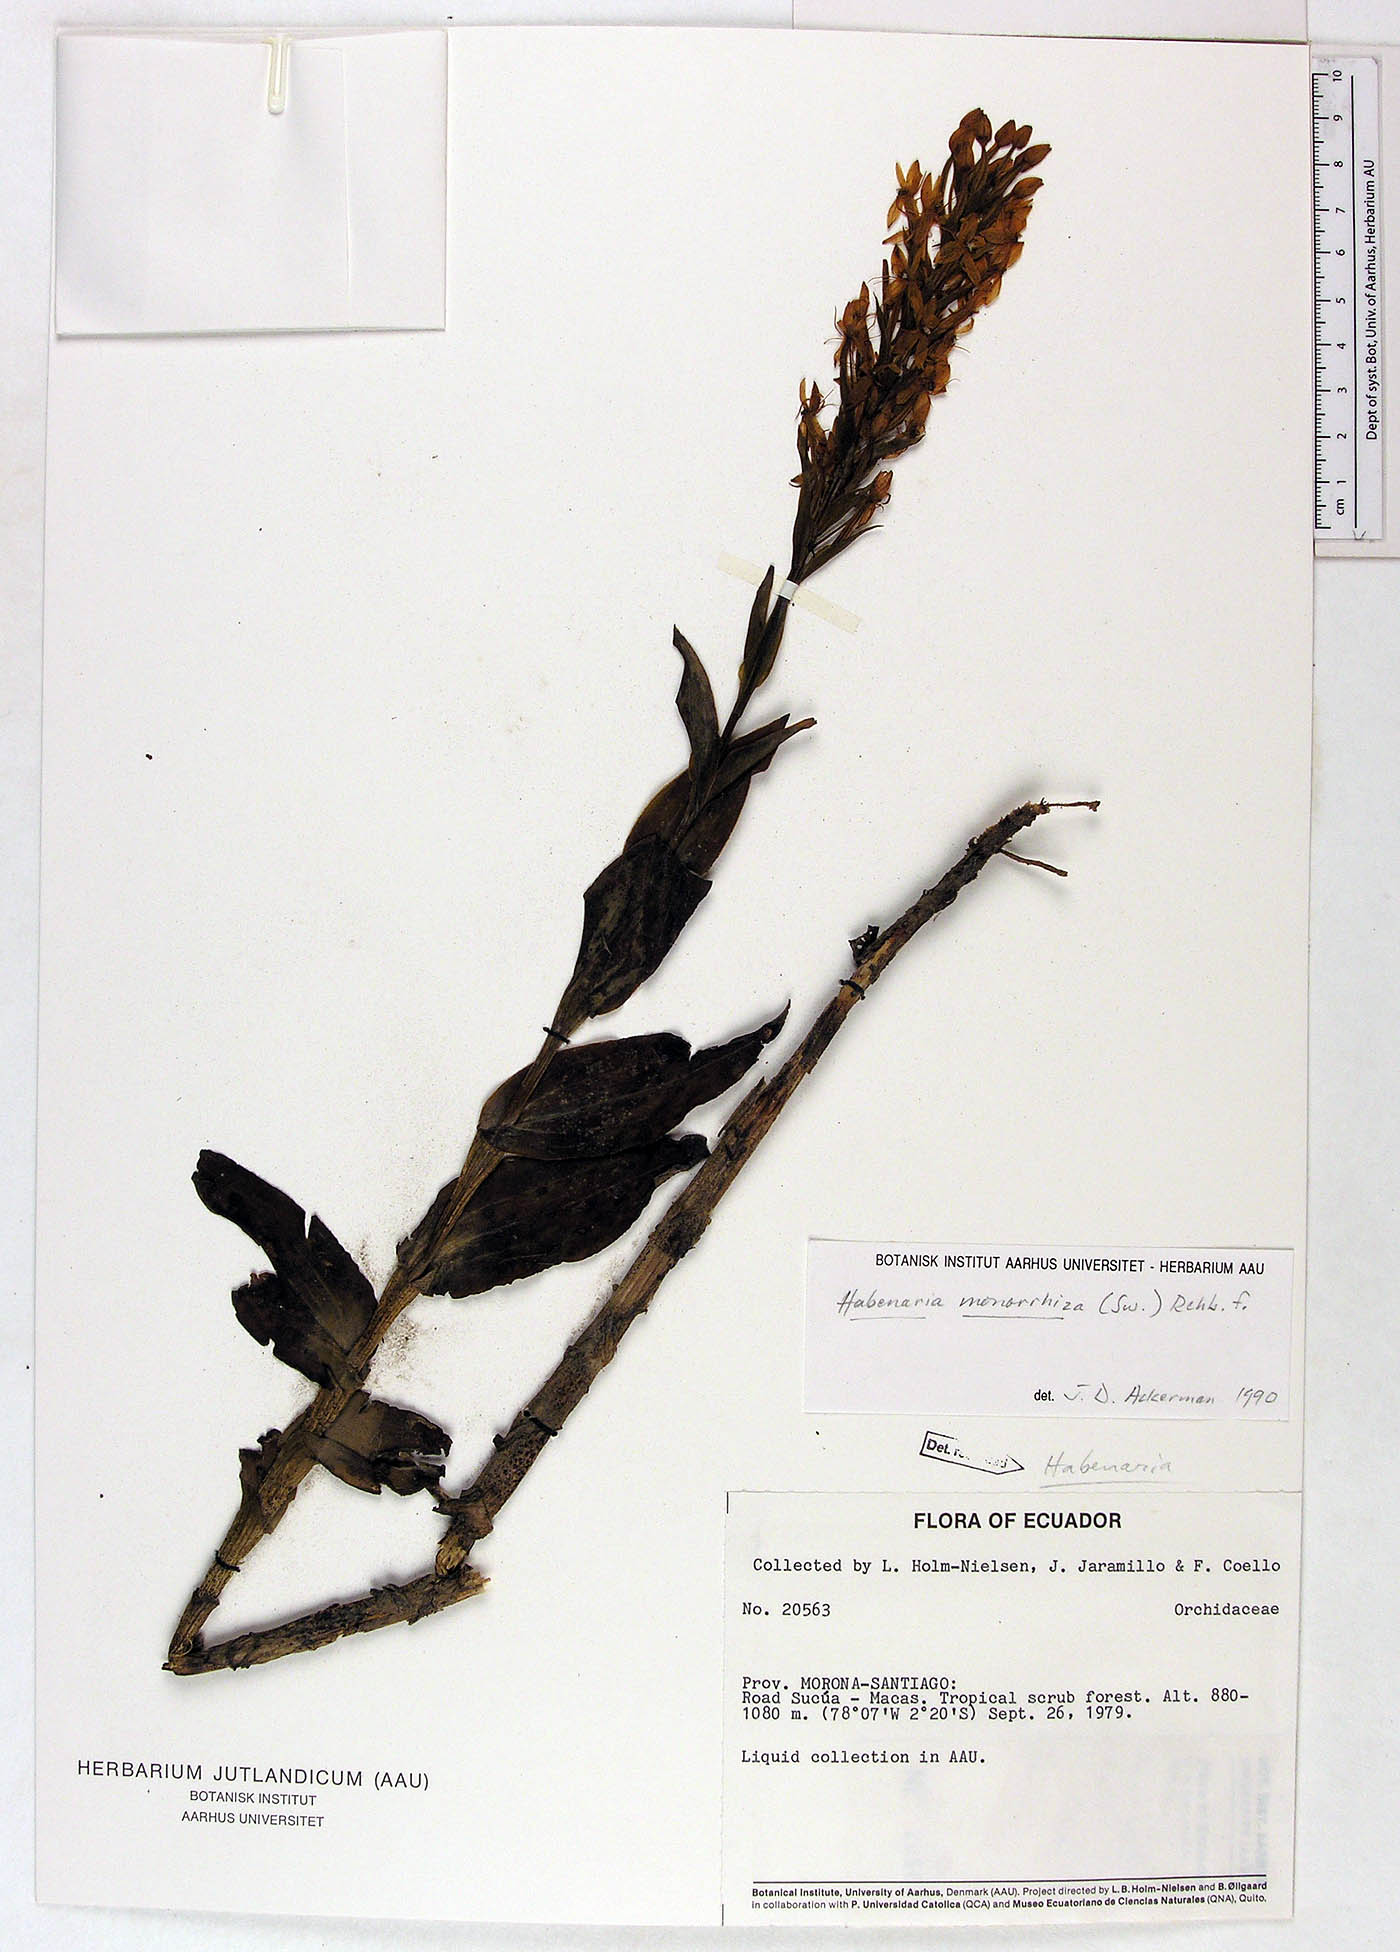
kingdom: Plantae
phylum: Tracheophyta
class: Liliopsida
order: Asparagales
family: Orchidaceae
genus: Habenaria
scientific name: Habenaria monorrhiza
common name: Tropical bog orchid
